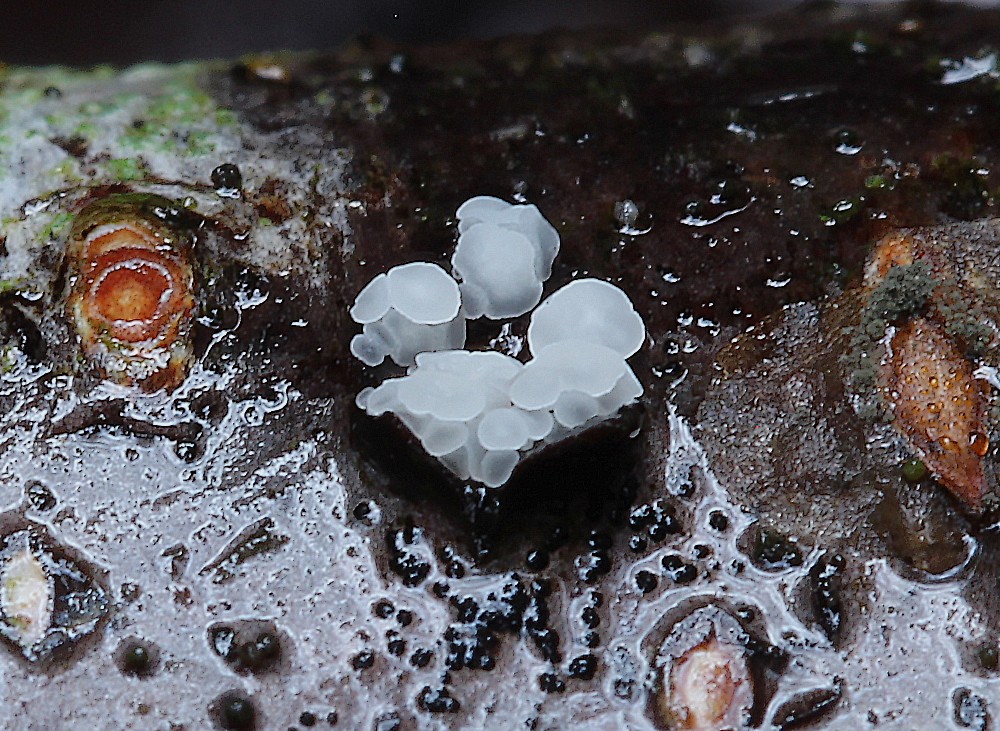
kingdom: Fungi
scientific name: Fungi
